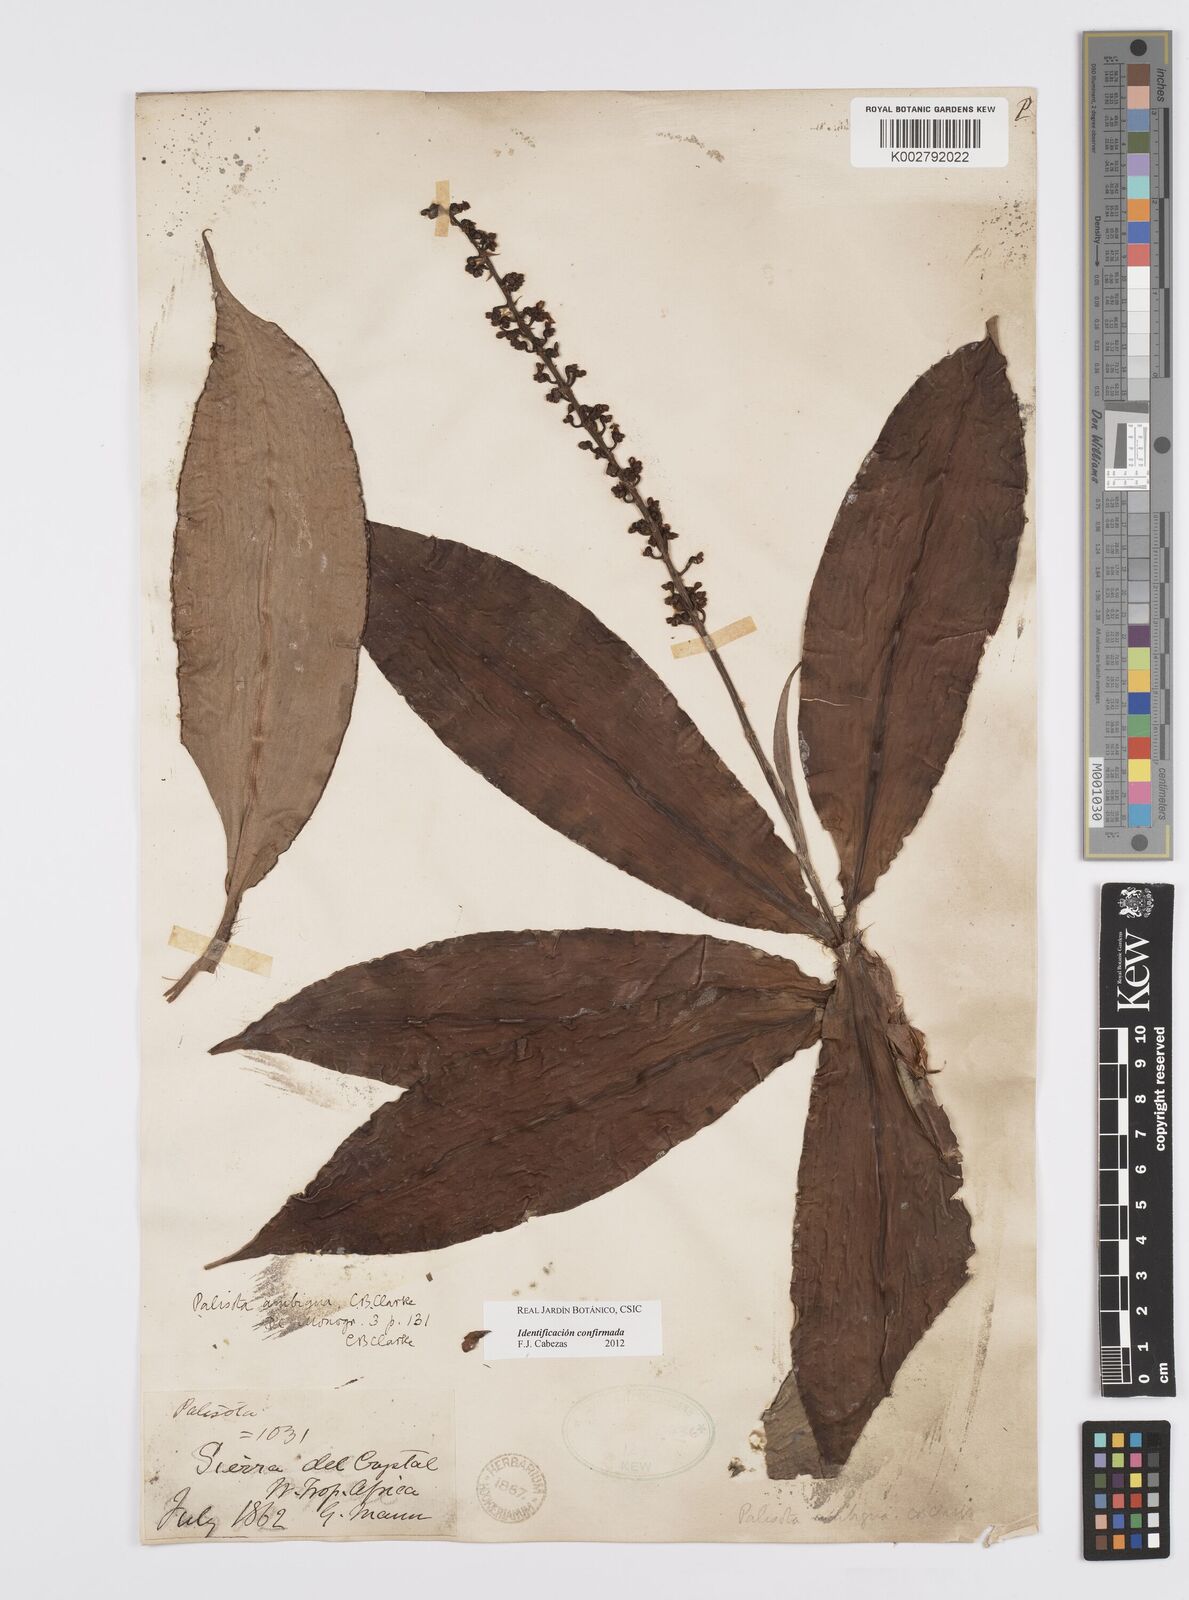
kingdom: Plantae
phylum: Tracheophyta
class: Liliopsida
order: Commelinales
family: Commelinaceae
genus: Palisota
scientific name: Palisota ambigua
